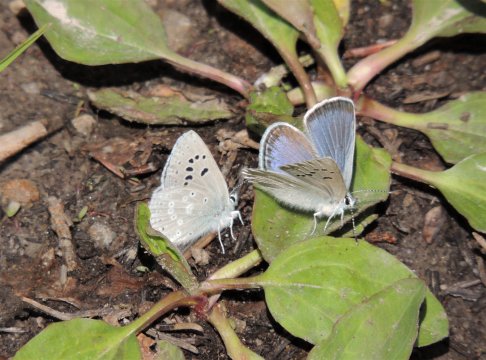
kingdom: Animalia
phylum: Arthropoda
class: Insecta
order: Lepidoptera
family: Lycaenidae
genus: Icaricia
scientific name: Icaricia icarioides
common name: Boisduval's Blue
